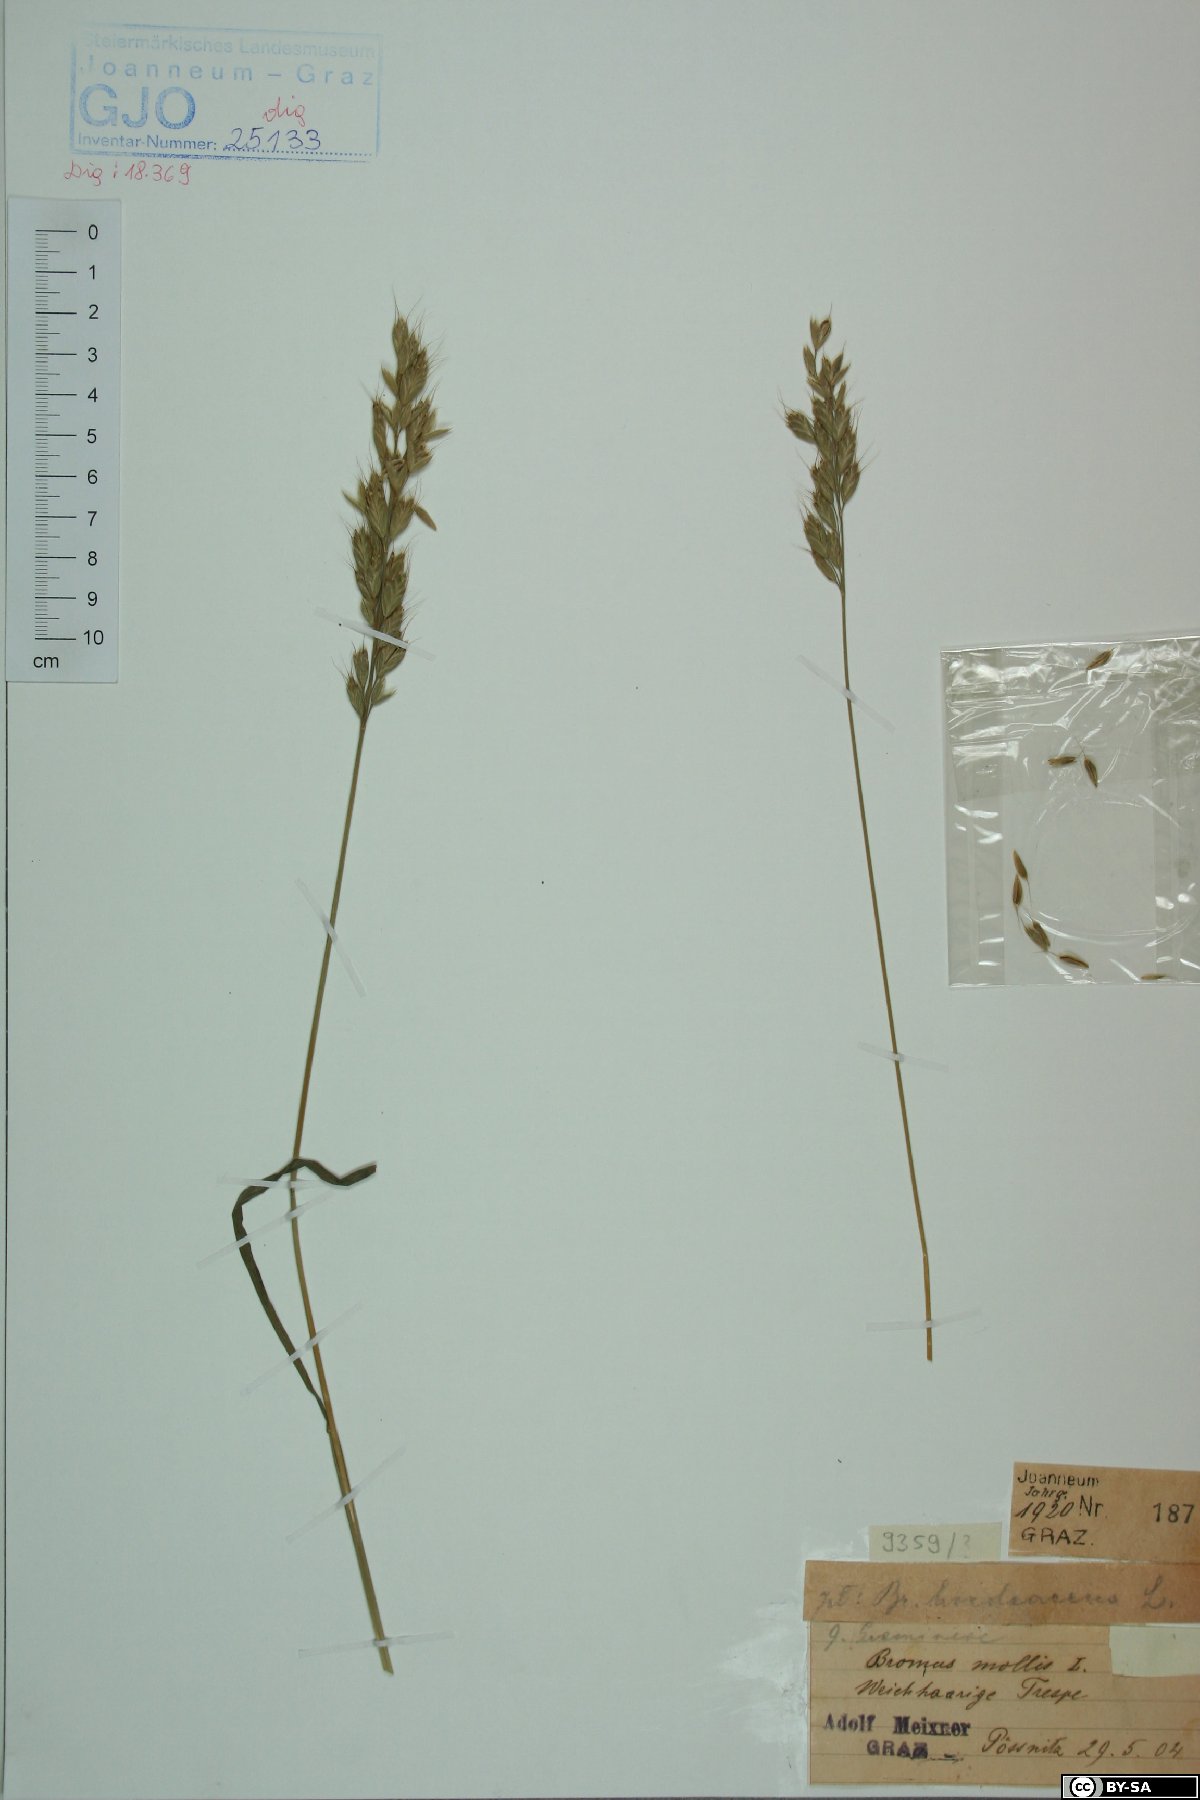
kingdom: Plantae
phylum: Tracheophyta
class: Liliopsida
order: Poales
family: Poaceae
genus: Bromus
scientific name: Bromus hordeaceus
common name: Soft brome
